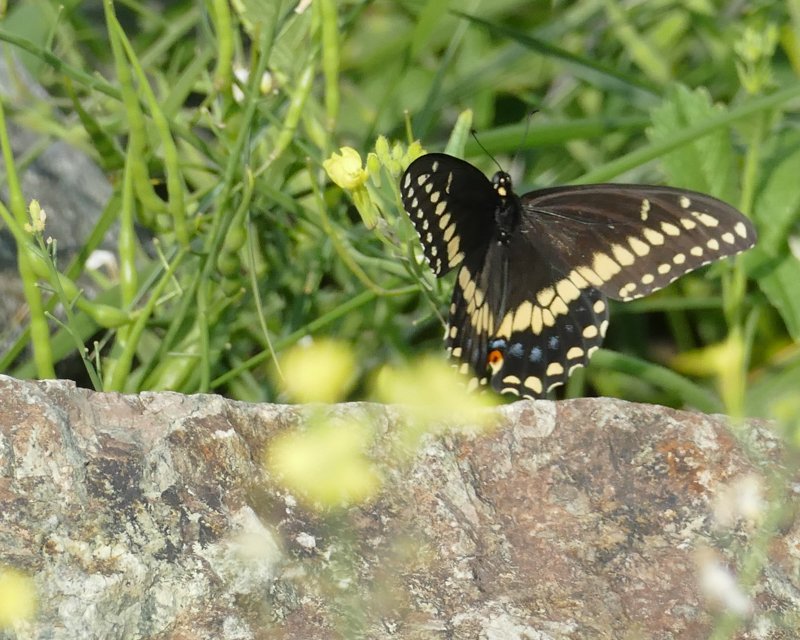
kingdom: Animalia
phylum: Arthropoda
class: Insecta
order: Lepidoptera
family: Papilionidae
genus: Papilio
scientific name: Papilio polyxenes
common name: Black Swallowtail
